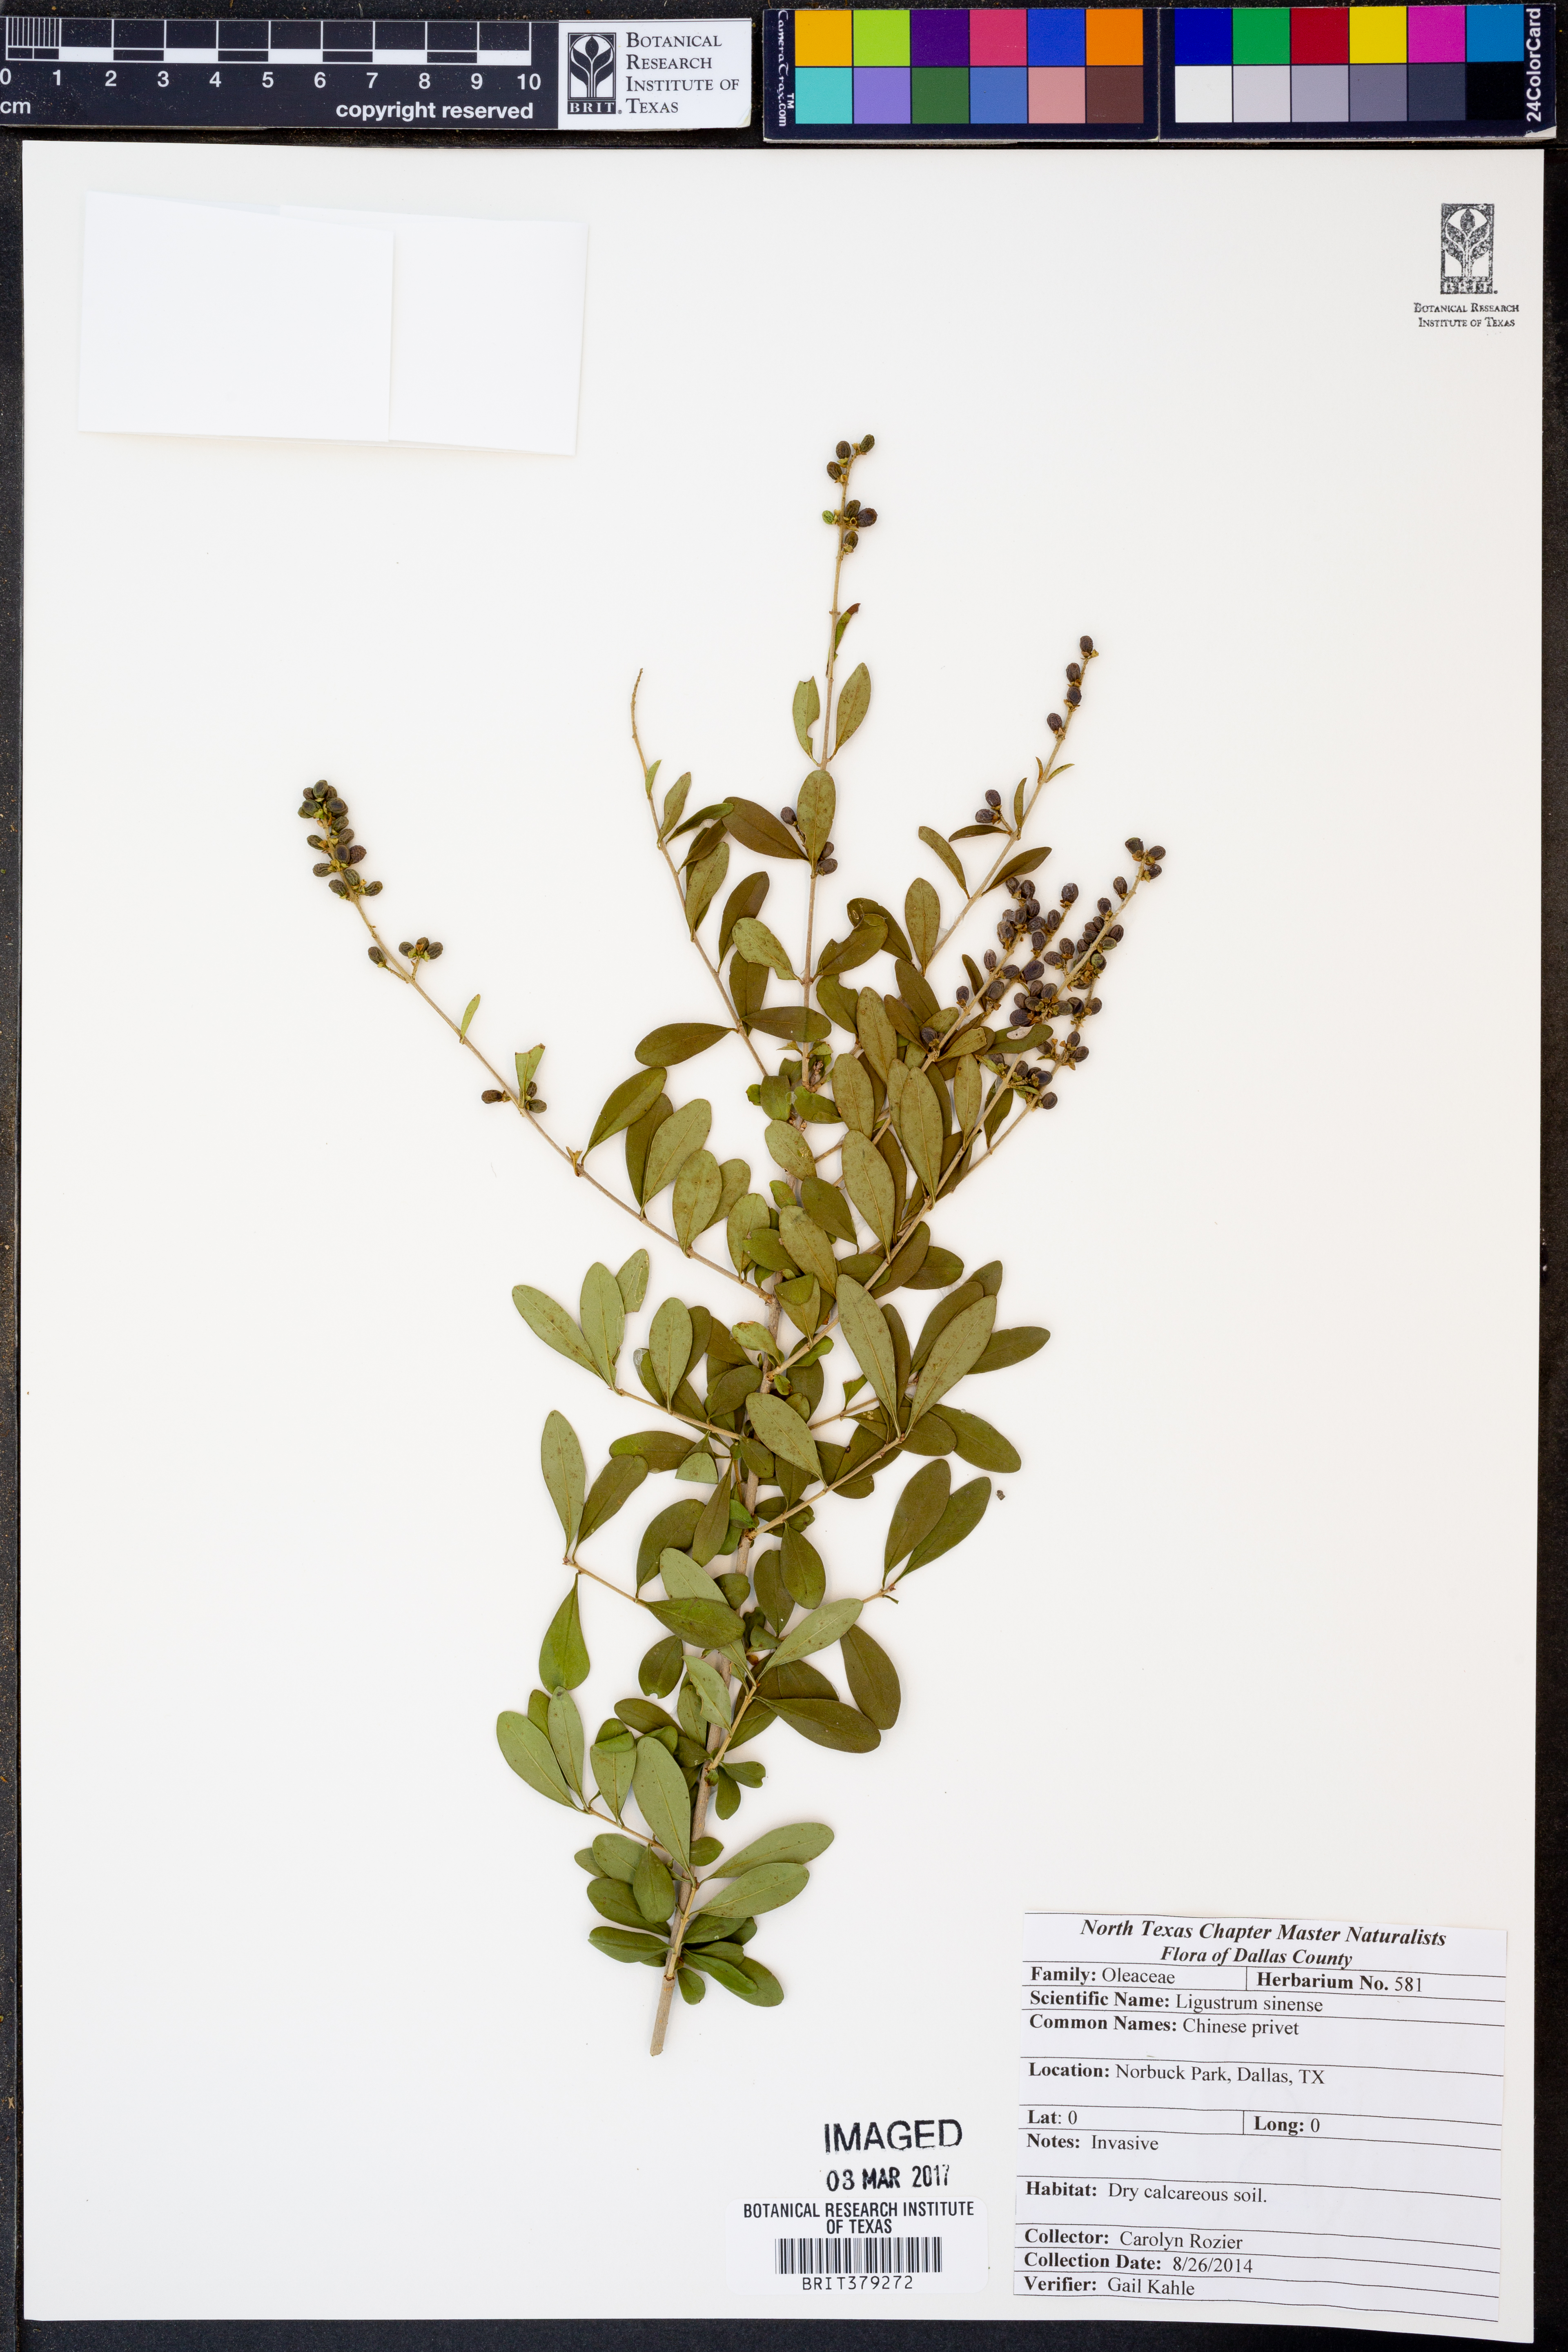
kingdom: Plantae
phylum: Tracheophyta
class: Magnoliopsida
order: Lamiales
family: Oleaceae
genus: Ligustrum
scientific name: Ligustrum sinense
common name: Chinese privet
